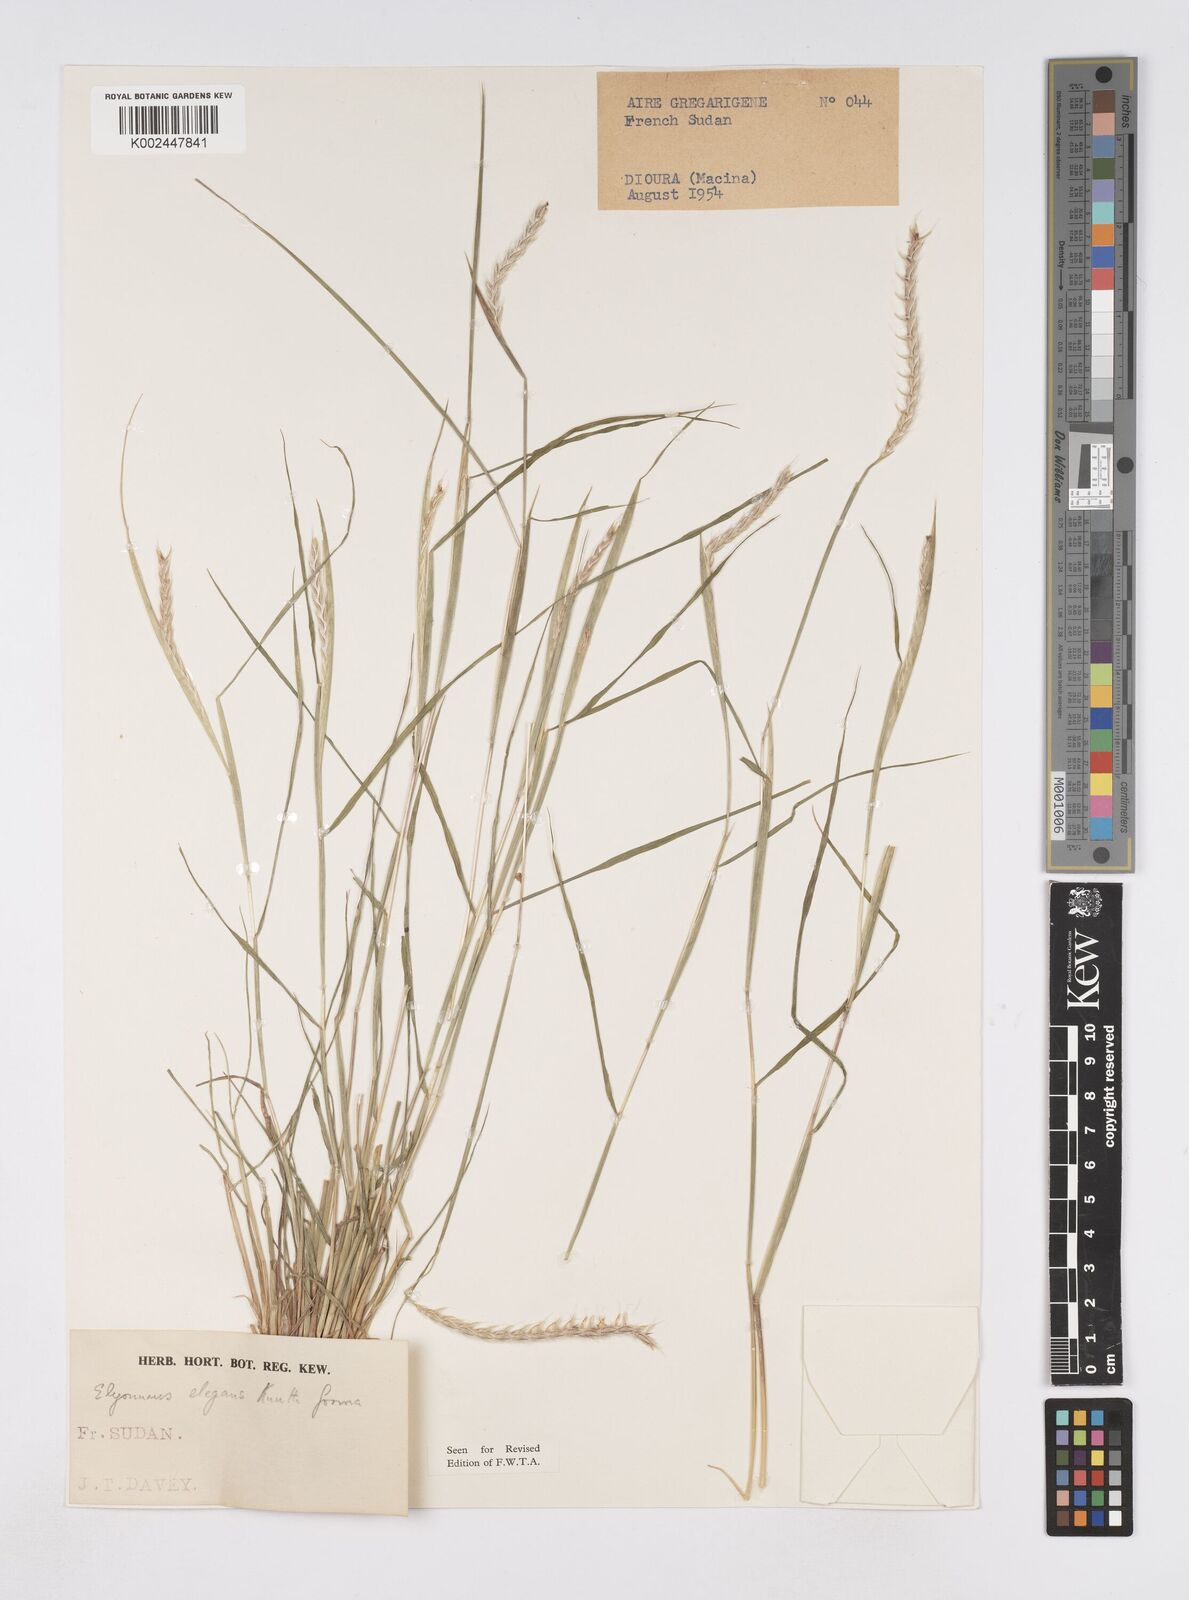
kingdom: Plantae
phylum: Tracheophyta
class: Liliopsida
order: Poales
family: Poaceae
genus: Elionurus
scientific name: Elionurus elegans
